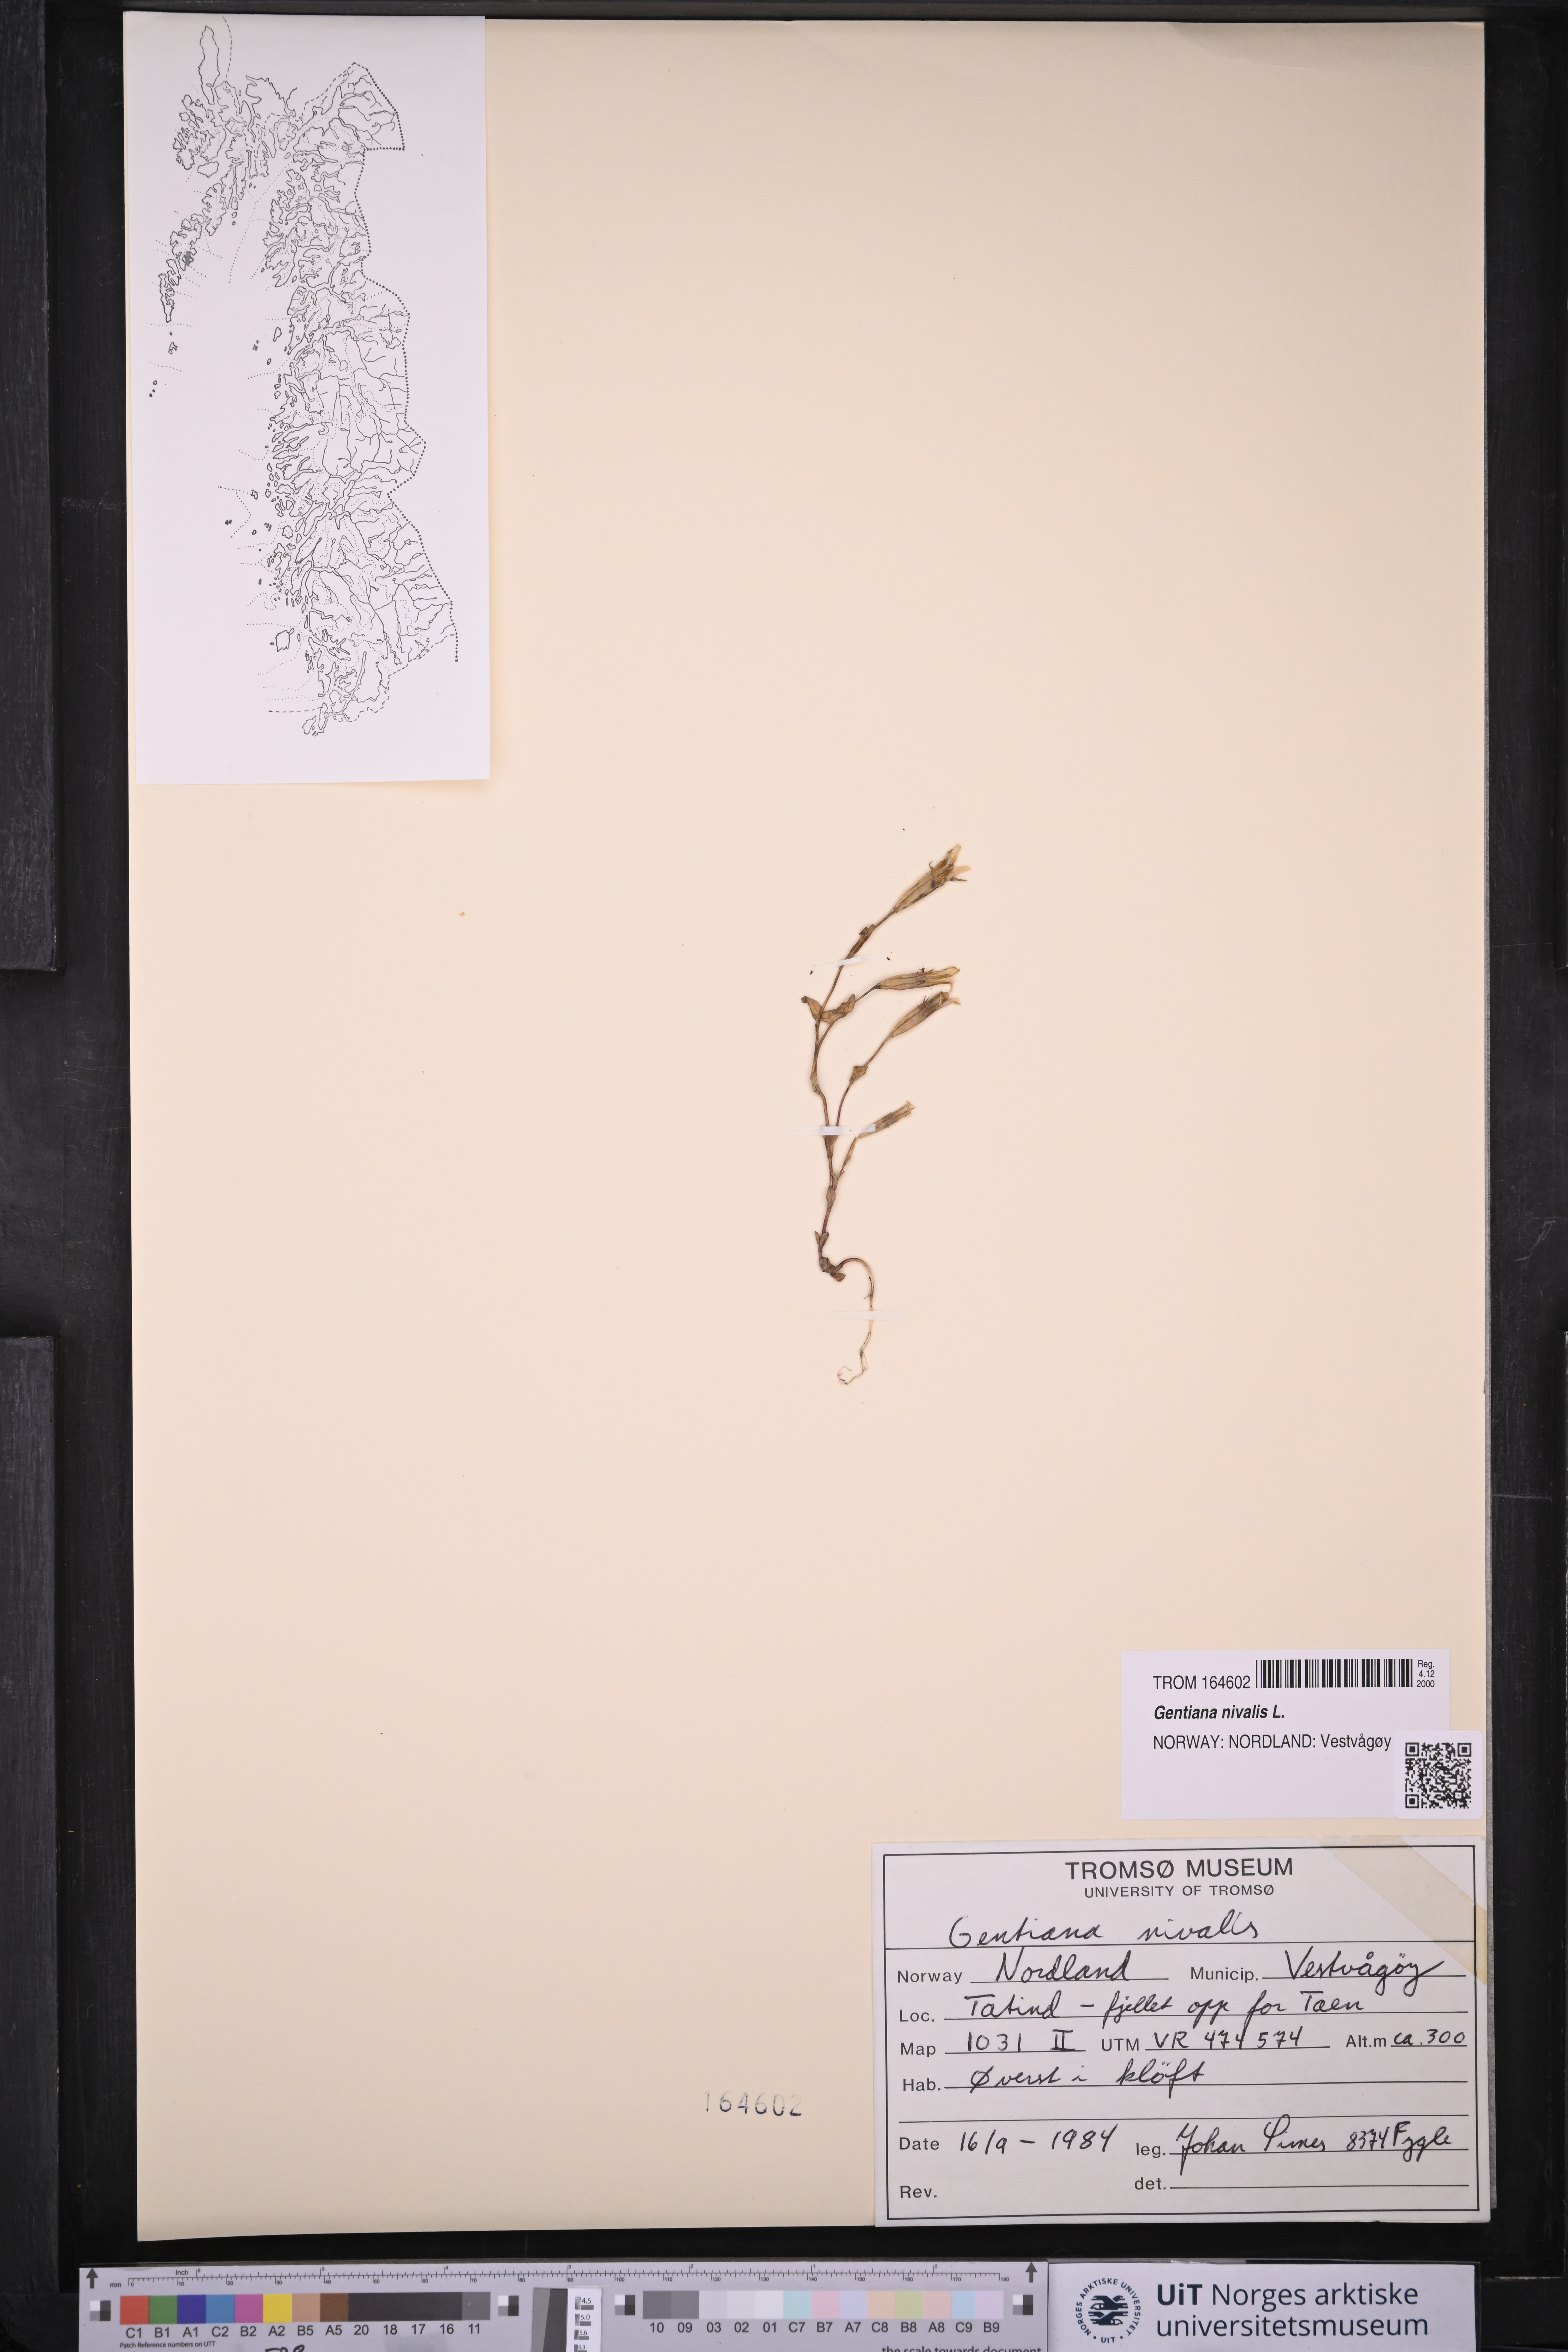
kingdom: Plantae
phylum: Tracheophyta
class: Magnoliopsida
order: Gentianales
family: Gentianaceae
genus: Gentiana
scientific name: Gentiana nivalis
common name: Alpine gentian
